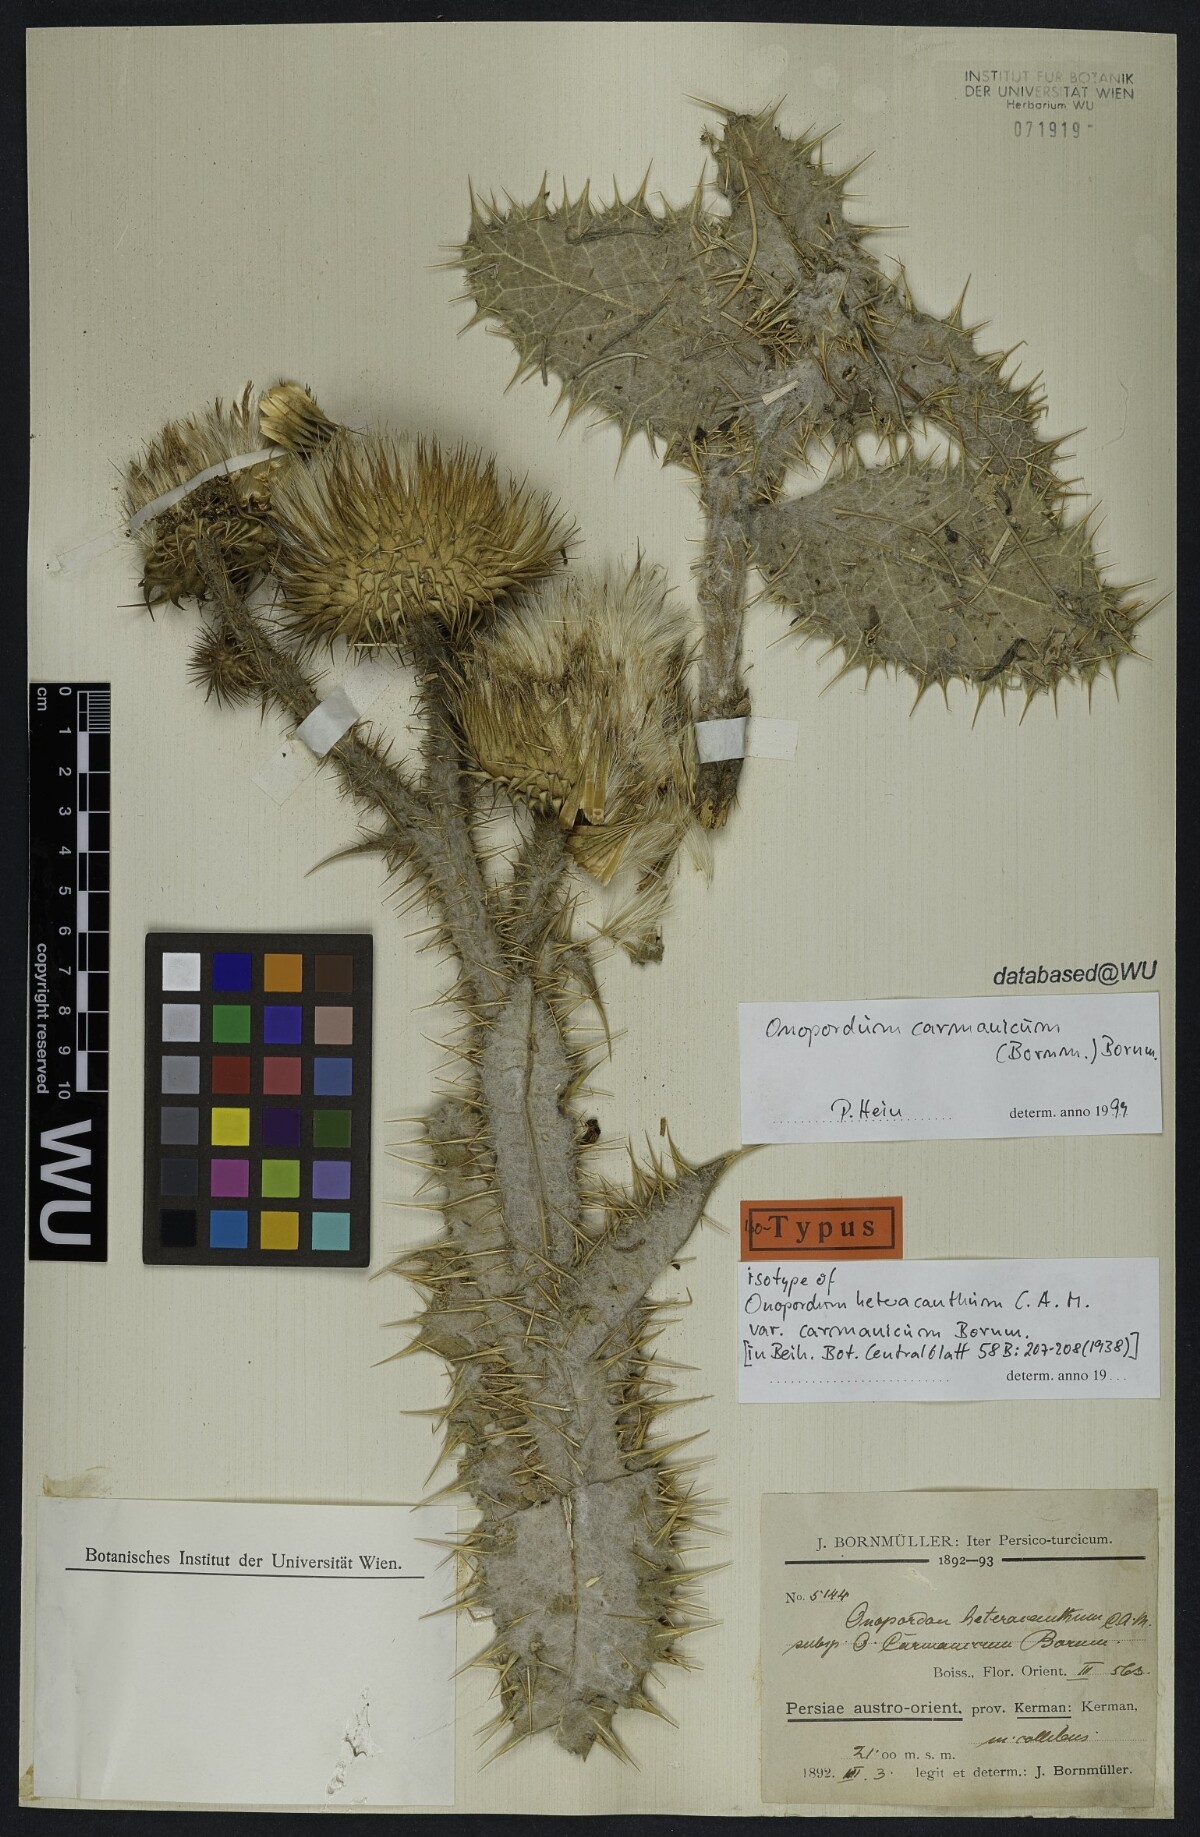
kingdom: Plantae
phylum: Tracheophyta
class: Magnoliopsida
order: Asterales
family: Asteraceae
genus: Onopordum
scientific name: Onopordum carmanicum
